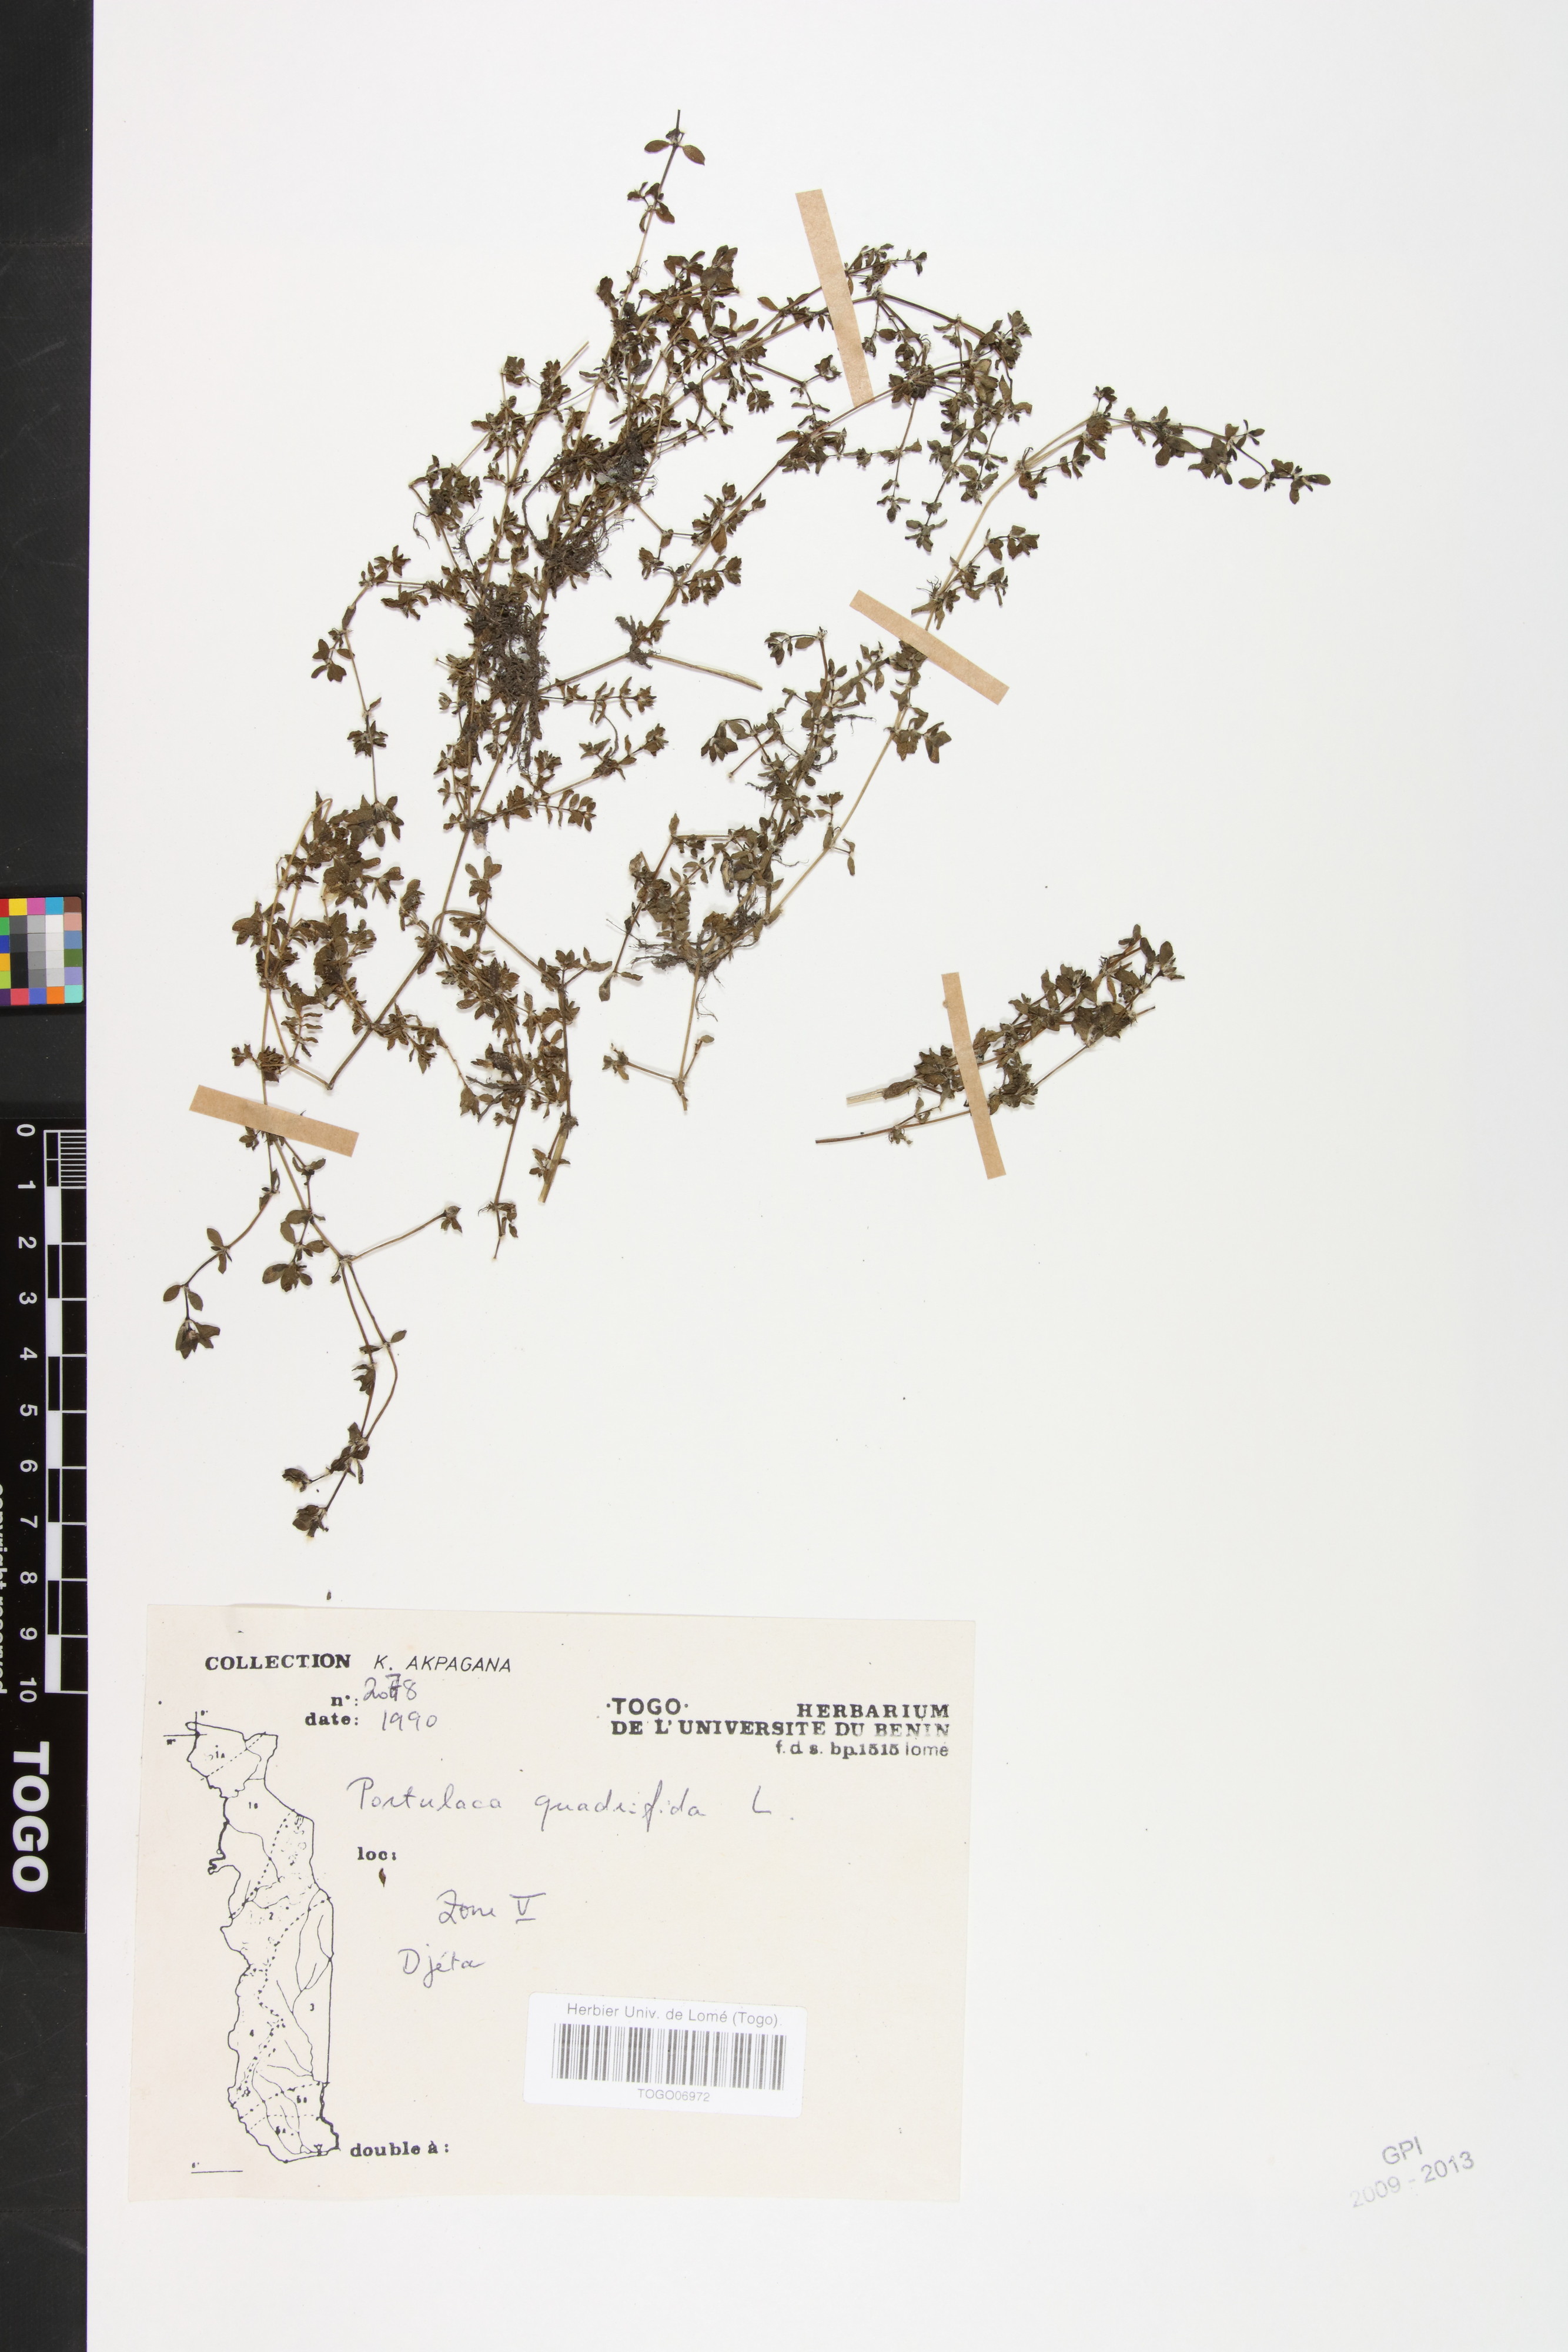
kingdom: Plantae
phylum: Tracheophyta
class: Magnoliopsida
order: Caryophyllales
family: Portulacaceae
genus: Portulaca
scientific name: Portulaca quadrifida
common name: Chickenweed
